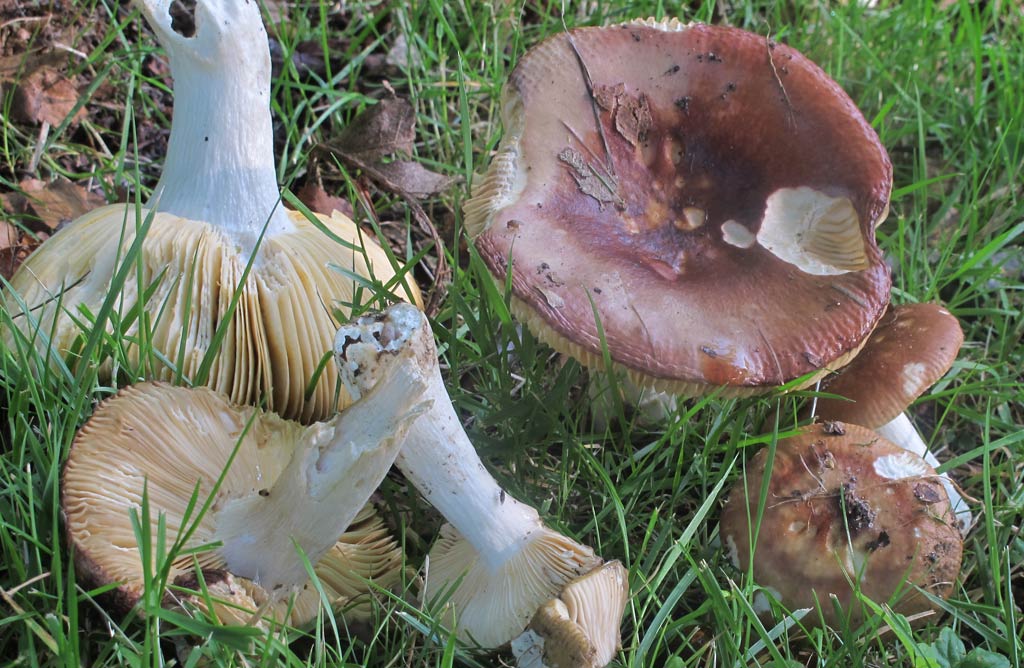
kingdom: Fungi
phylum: Basidiomycota
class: Agaricomycetes
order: Russulales
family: Russulaceae
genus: Russula
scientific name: Russula depallens
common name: falmende skørhat
